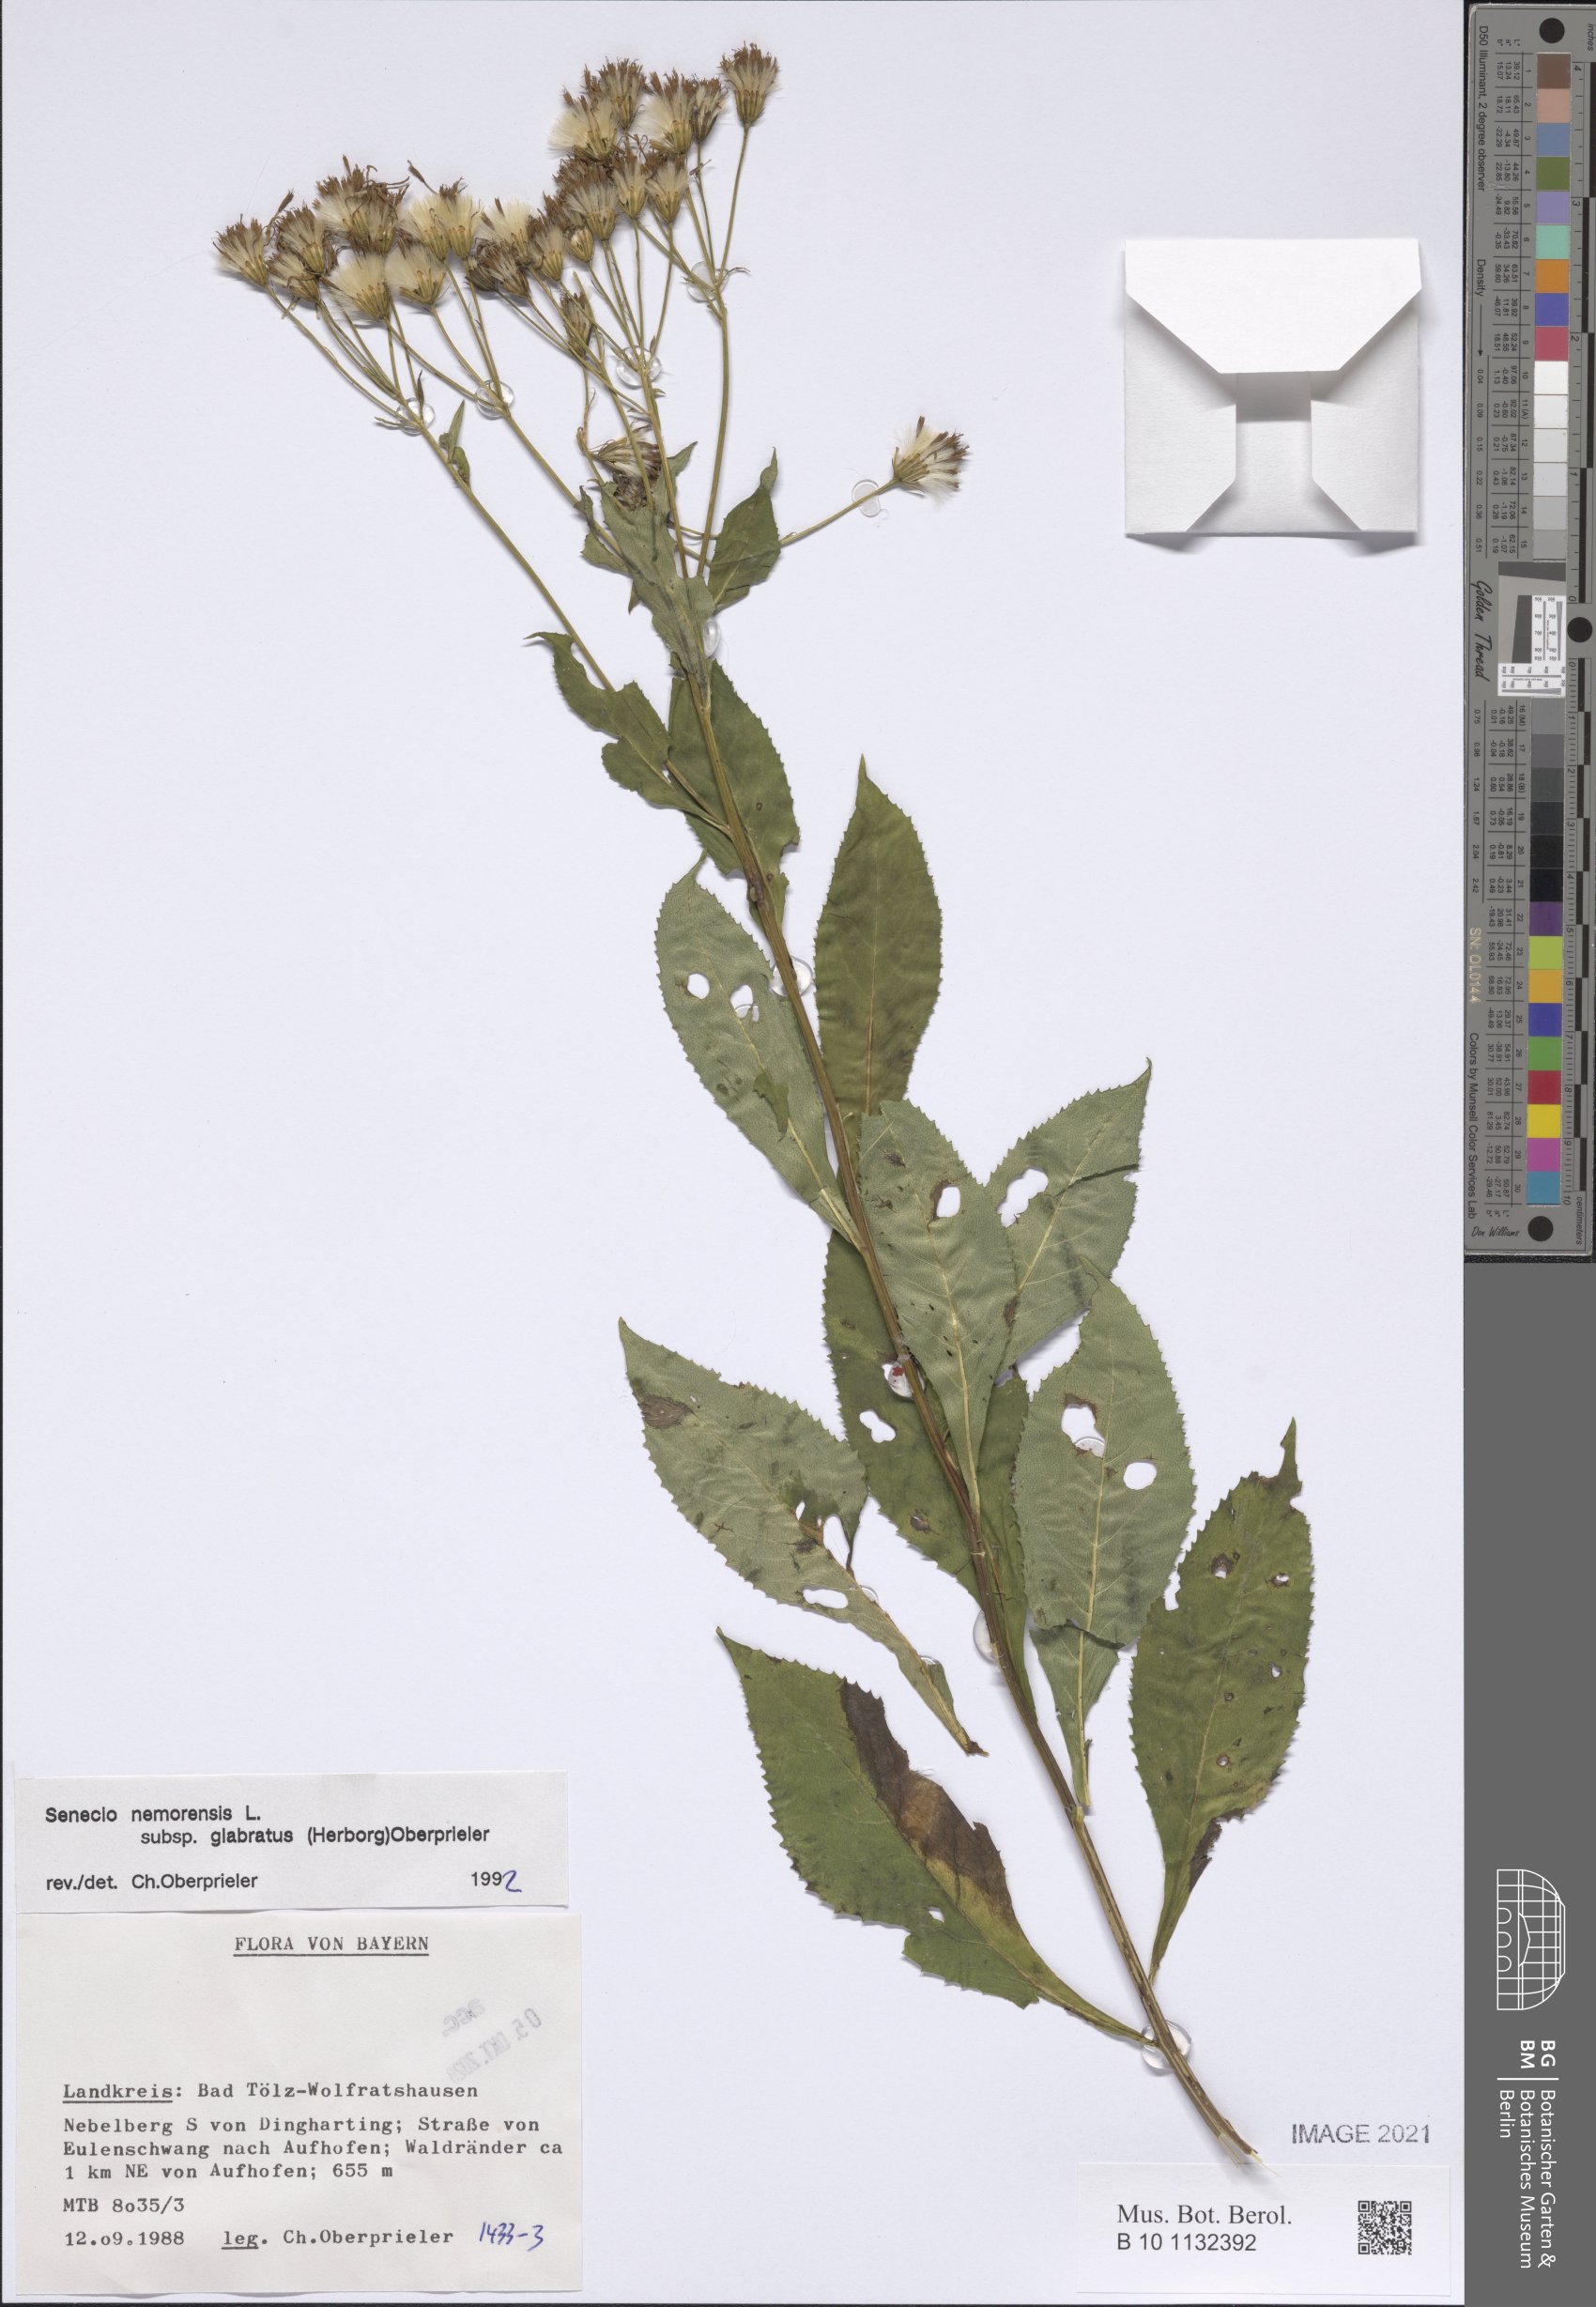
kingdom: Plantae
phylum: Tracheophyta
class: Magnoliopsida
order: Asterales
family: Asteraceae
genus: Senecio
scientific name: Senecio germanicus
